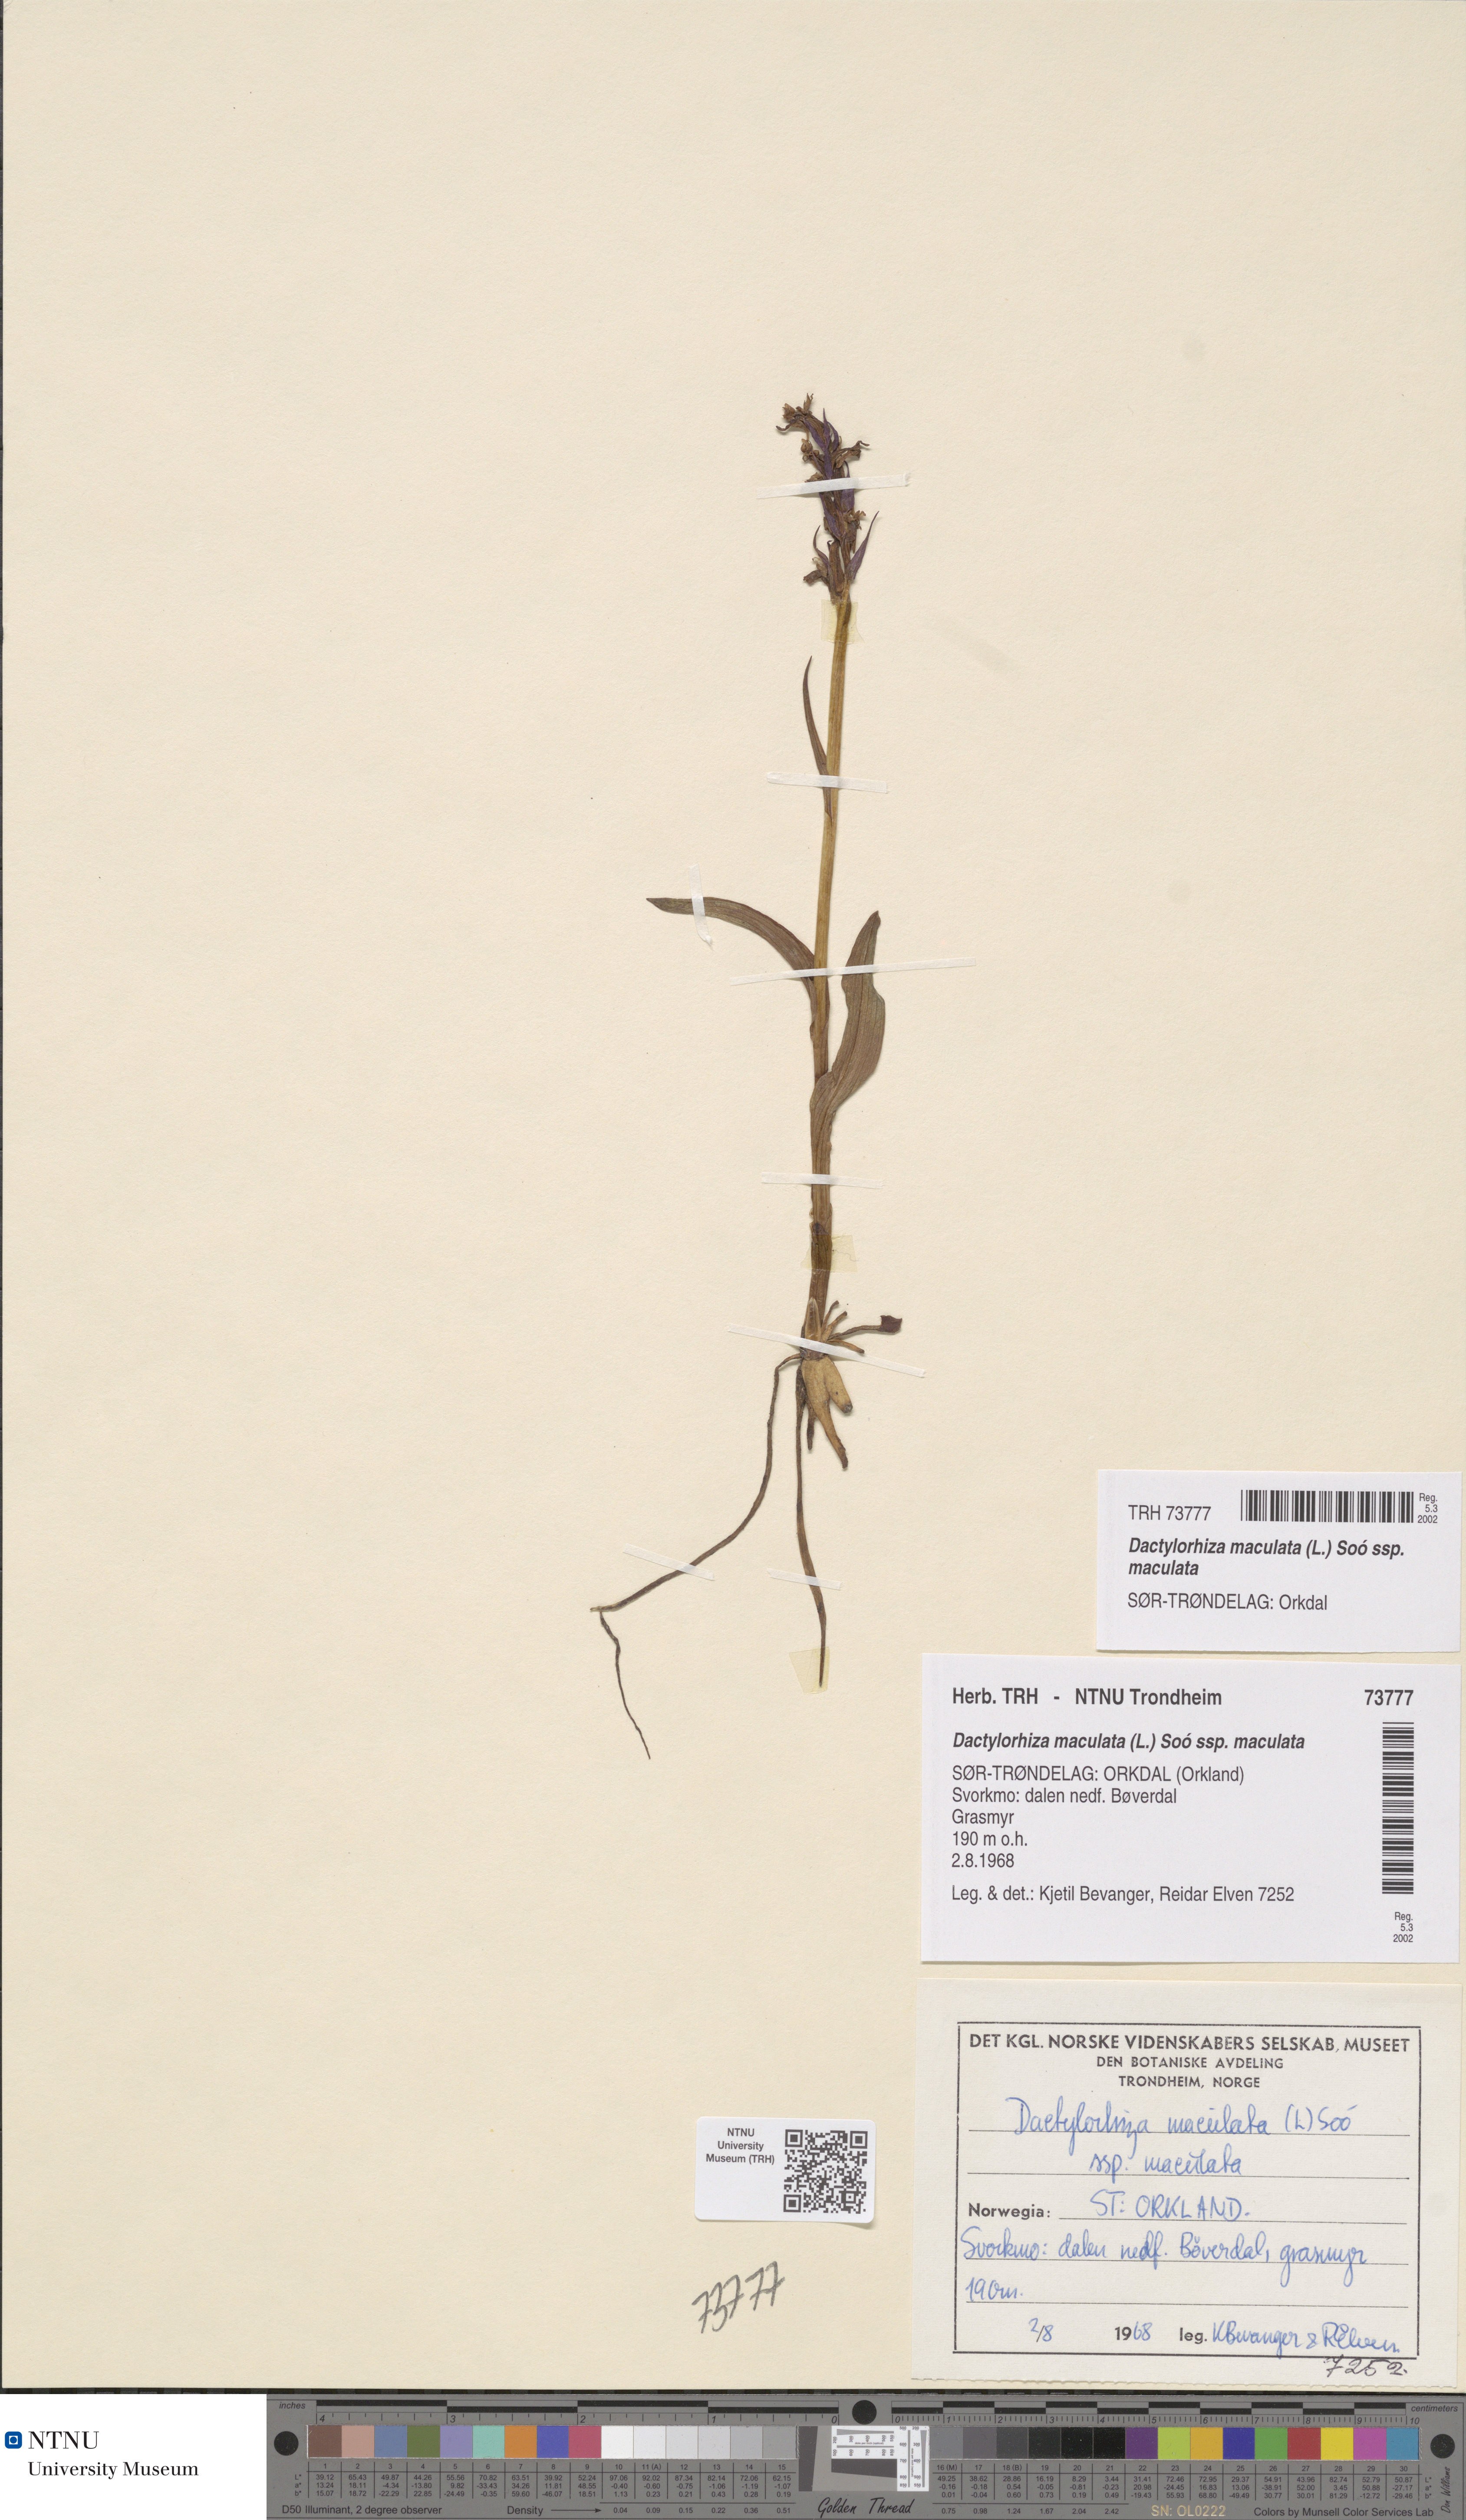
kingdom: Plantae
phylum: Tracheophyta
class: Liliopsida
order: Asparagales
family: Orchidaceae
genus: Dactylorhiza
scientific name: Dactylorhiza maculata
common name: Heath spotted-orchid
